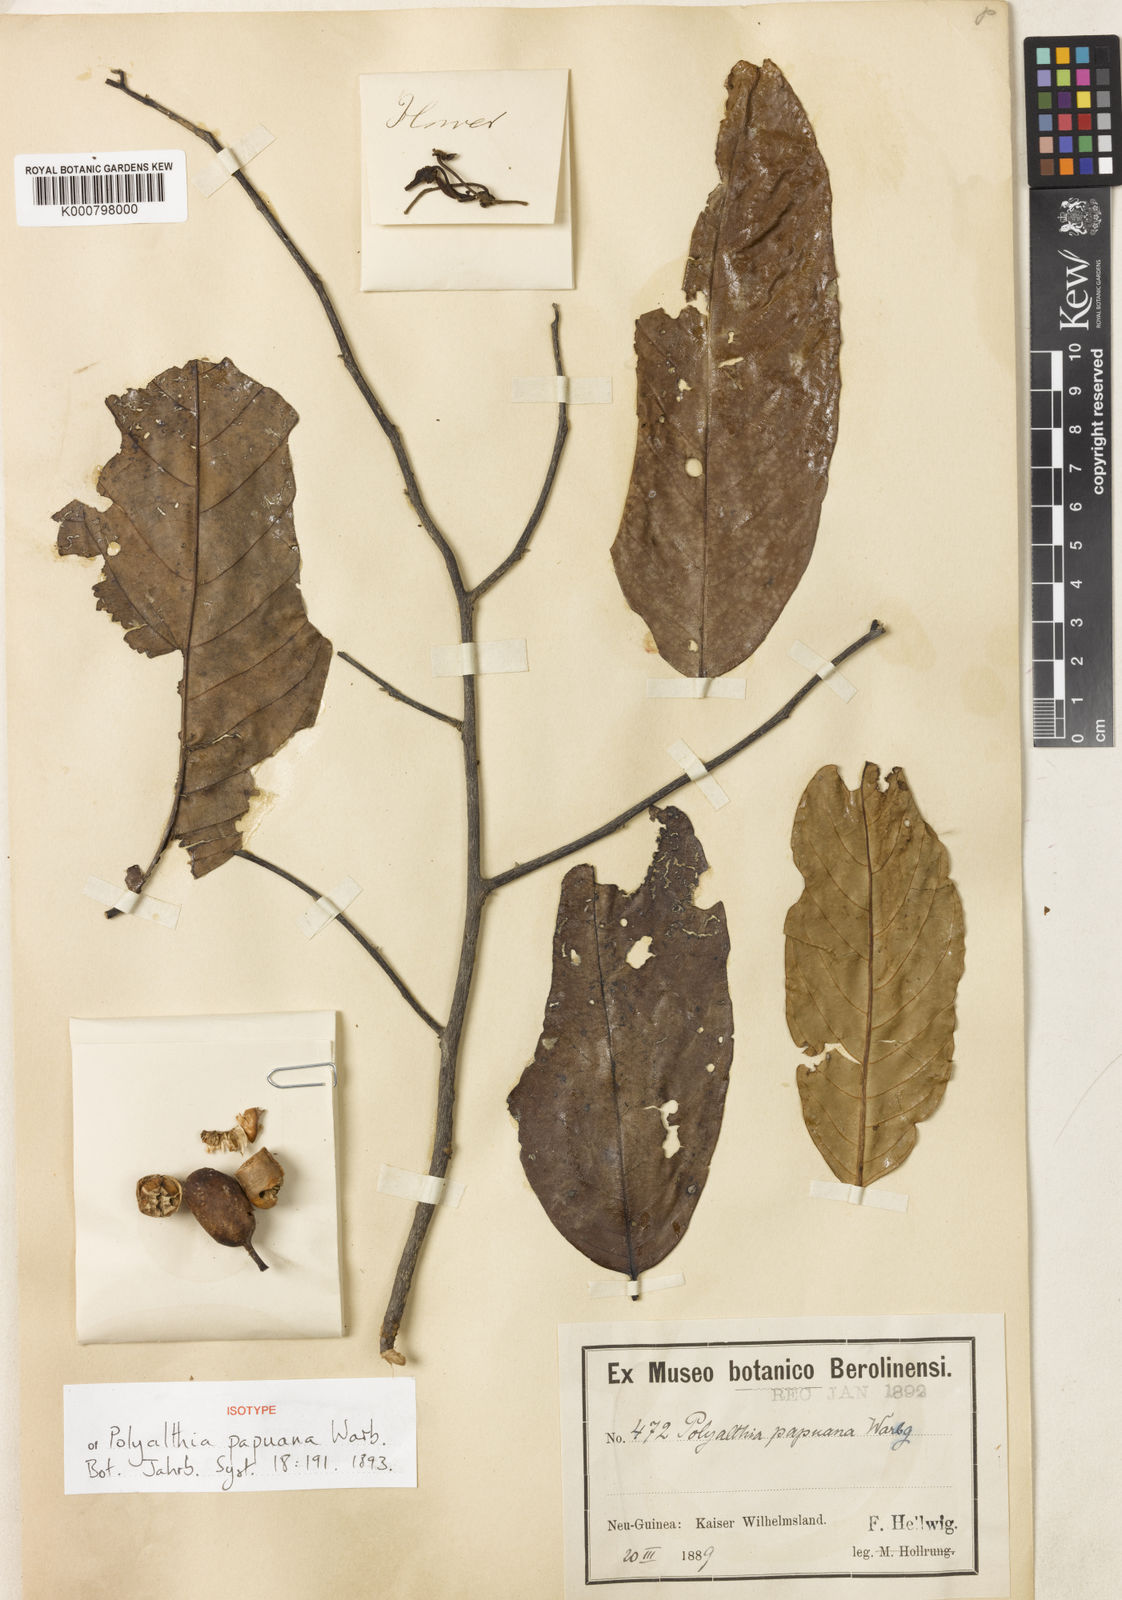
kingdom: Plantae
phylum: Tracheophyta
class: Magnoliopsida
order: Magnoliales
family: Annonaceae
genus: Polyalthia
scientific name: Polyalthia chloroxantha
